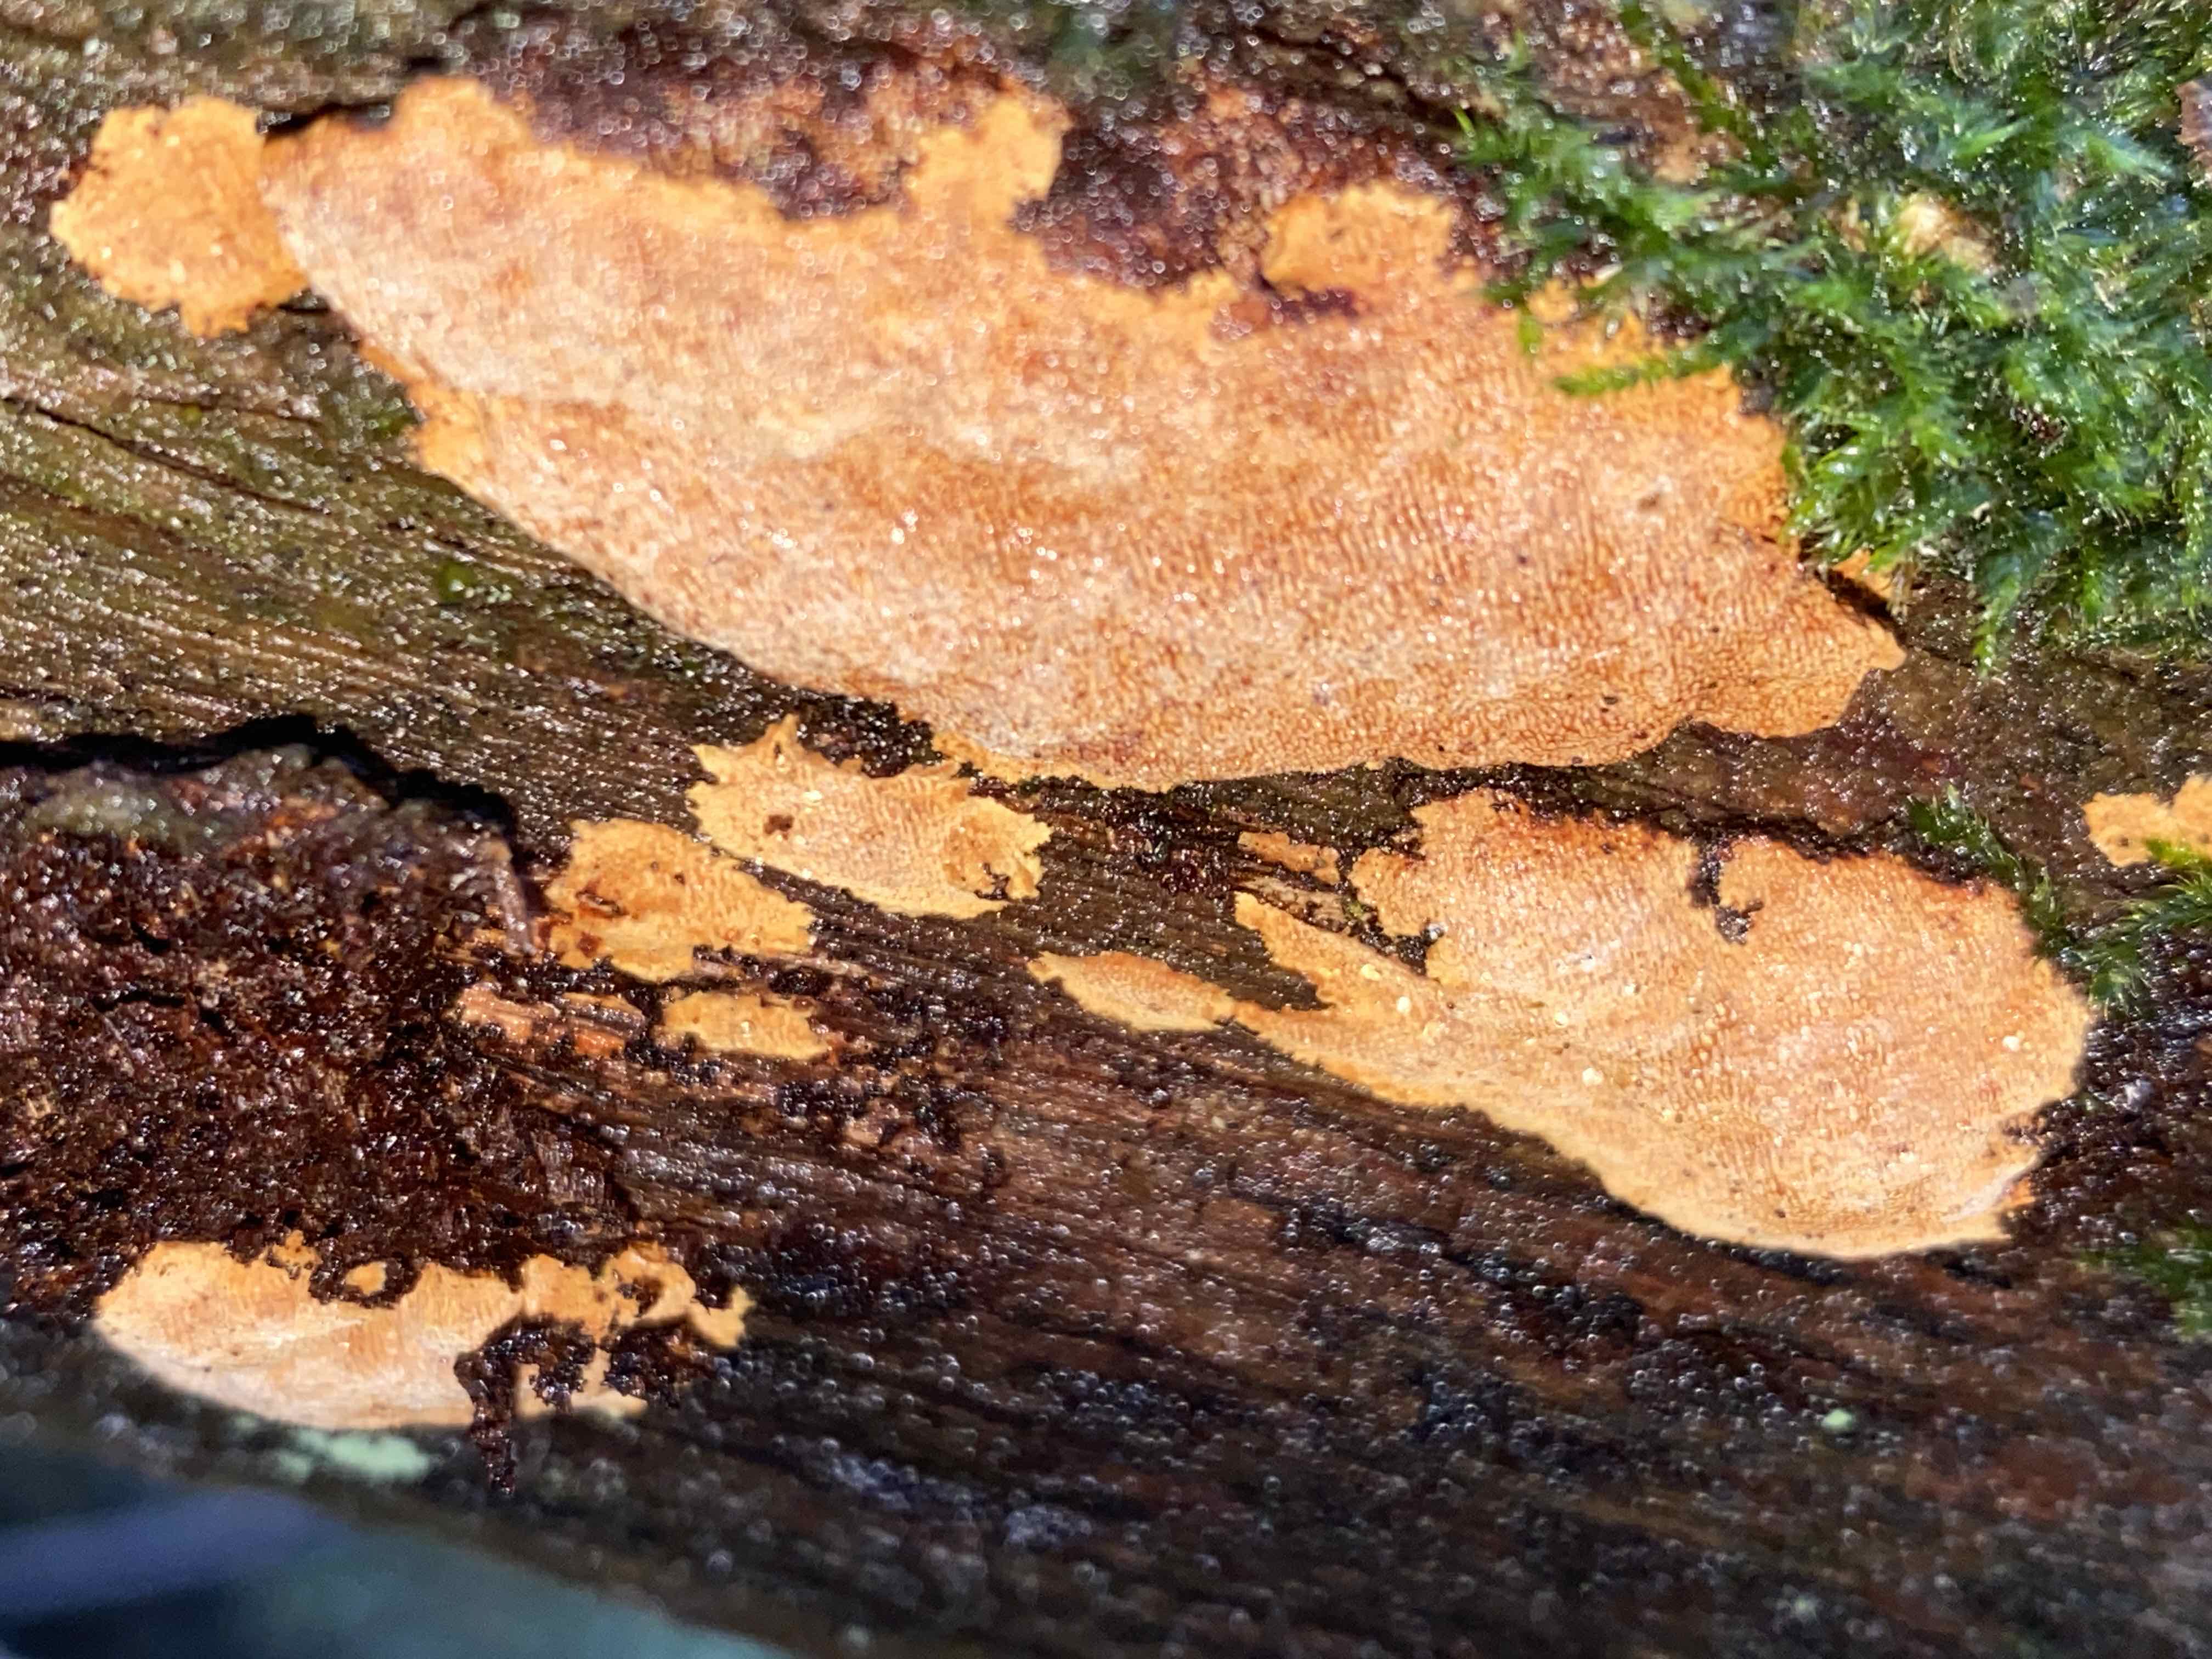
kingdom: Fungi
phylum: Basidiomycota
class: Agaricomycetes
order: Hymenochaetales
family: Hymenochaetaceae
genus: Fuscoporia
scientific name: Fuscoporia ferrea
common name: skorpe-ildporesvamp
